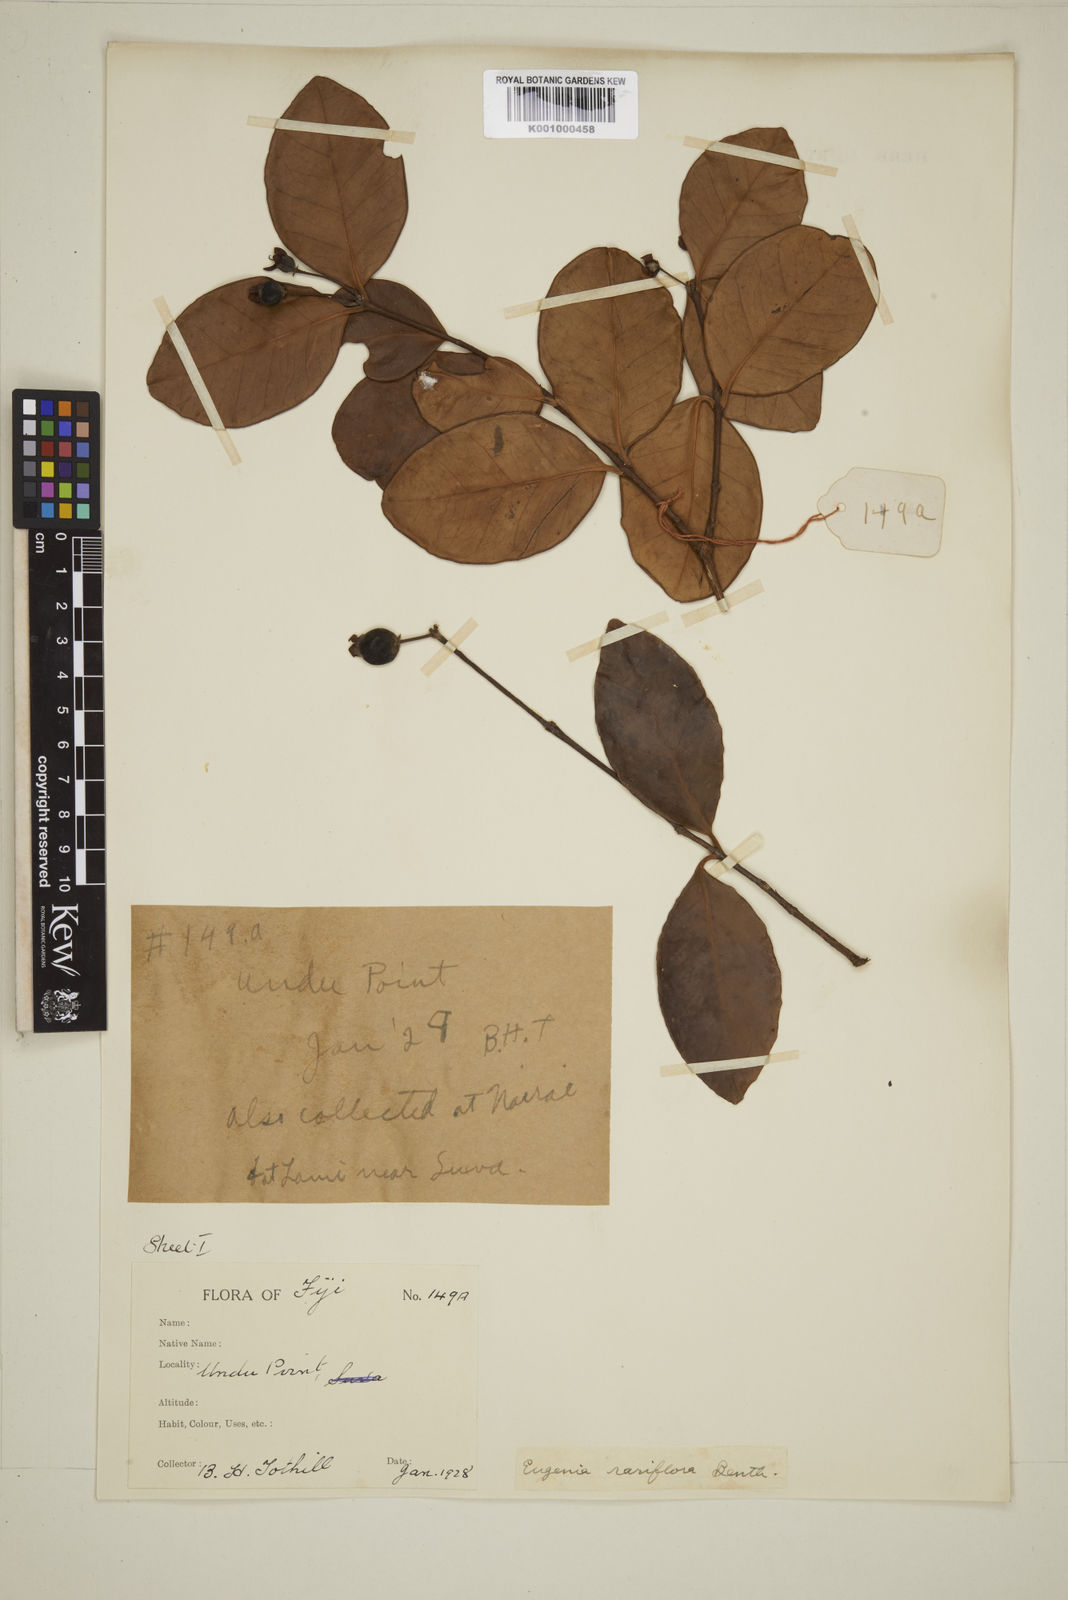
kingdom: Plantae
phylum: Tracheophyta
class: Magnoliopsida
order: Myrtales
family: Myrtaceae
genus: Eugenia
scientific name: Eugenia reinwardtiana
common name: Cedar bay-cherry
